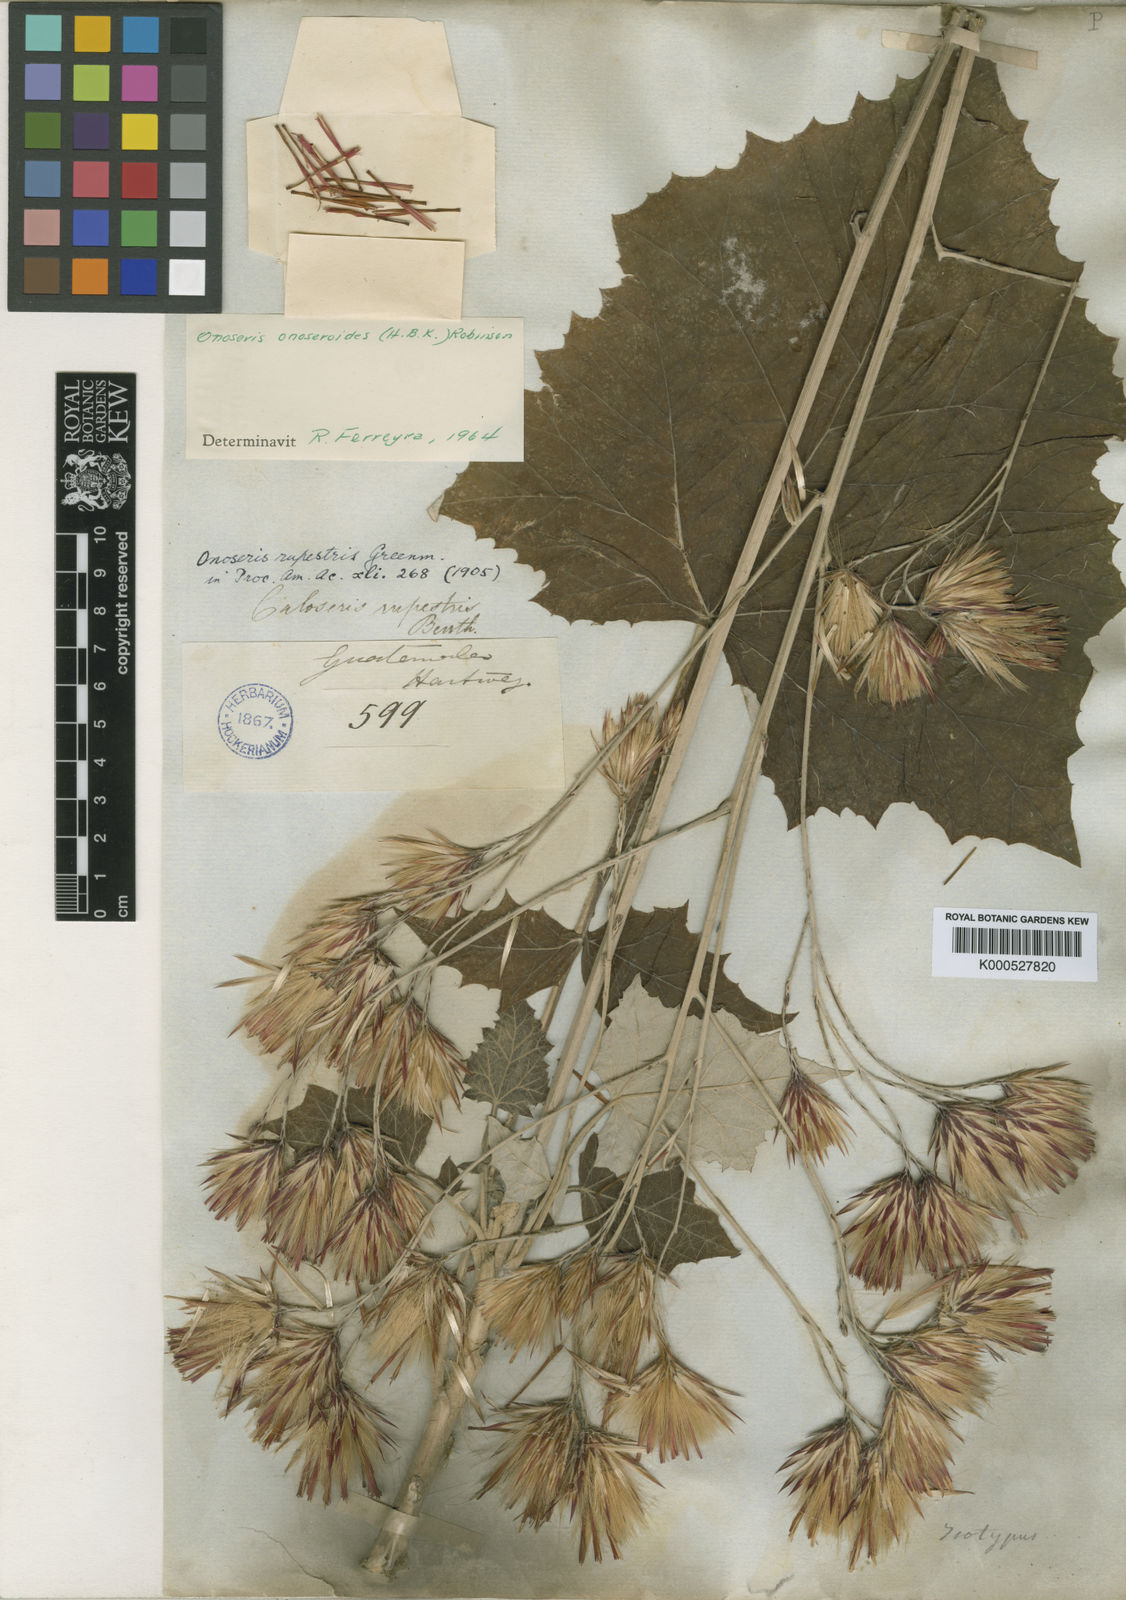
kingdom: Plantae
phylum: Tracheophyta
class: Magnoliopsida
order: Asterales
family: Asteraceae
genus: Onoseris
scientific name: Onoseris onoseroides
